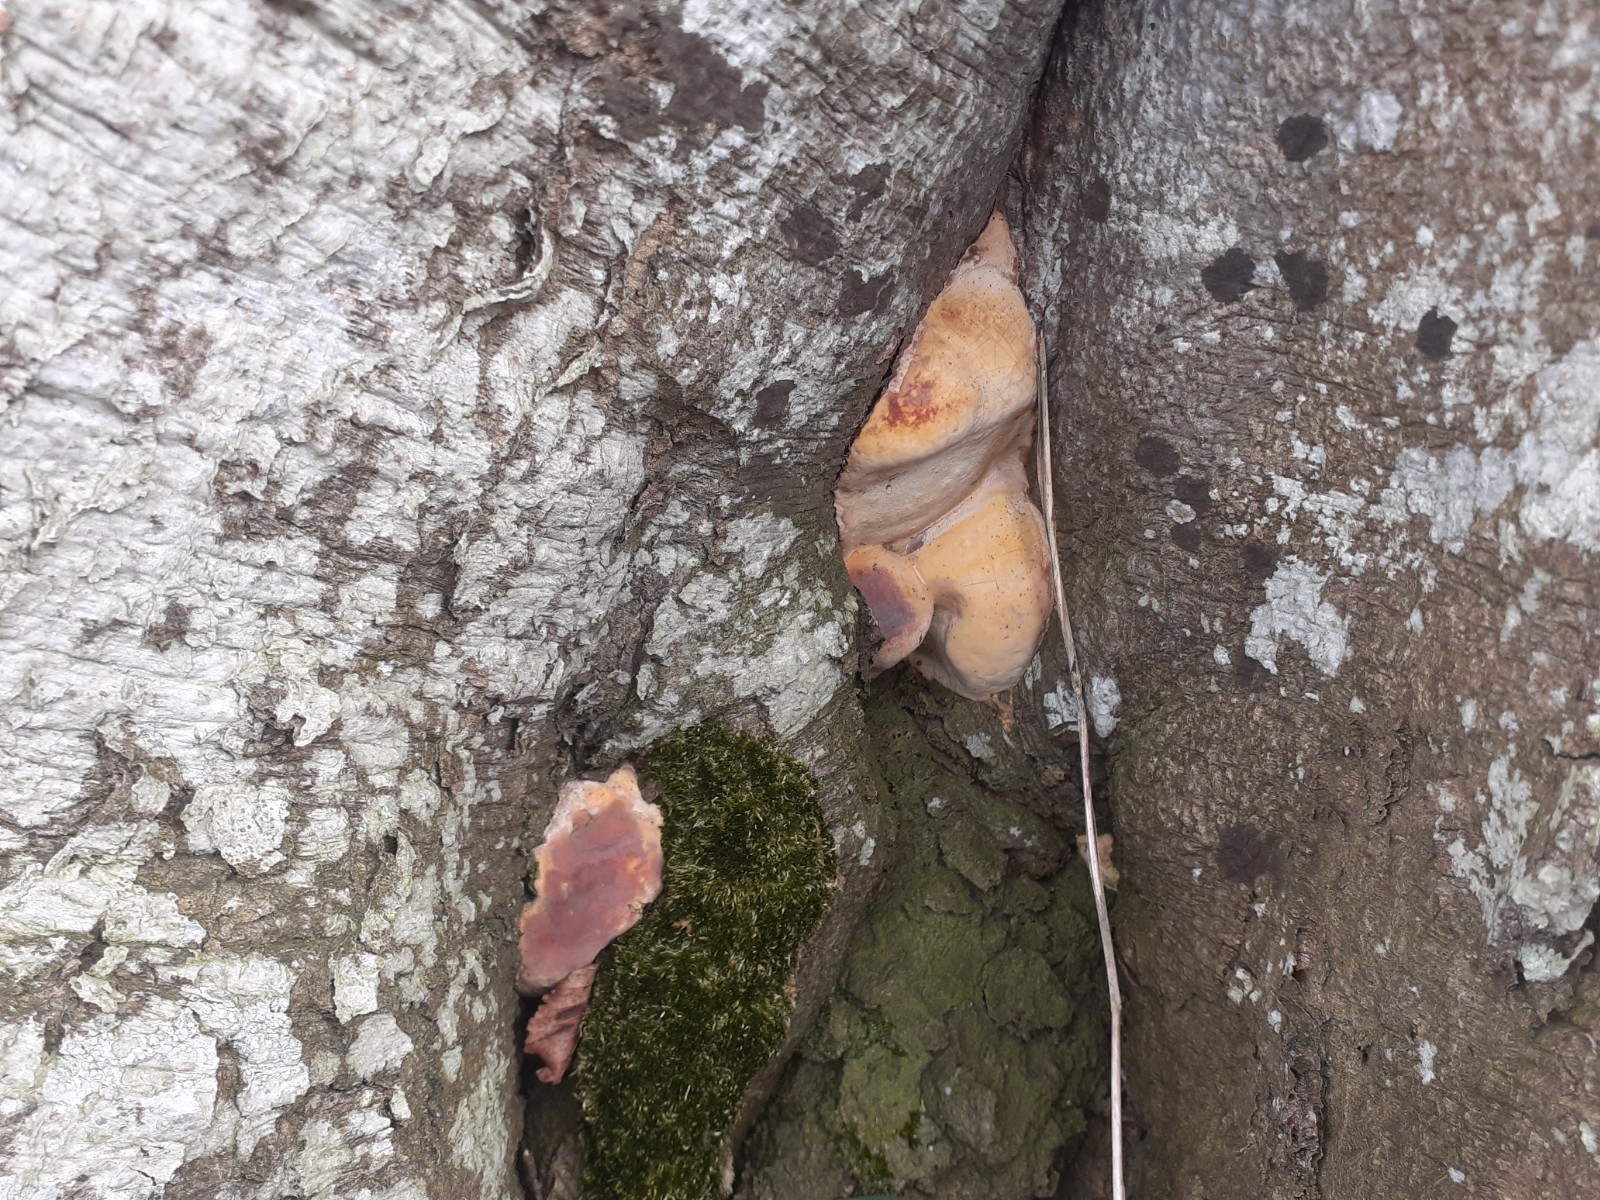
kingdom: Fungi
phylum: Ascomycota
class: Sordariomycetes
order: Xylariales
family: Hypoxylaceae
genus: Daldinia
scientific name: Daldinia concentrica
